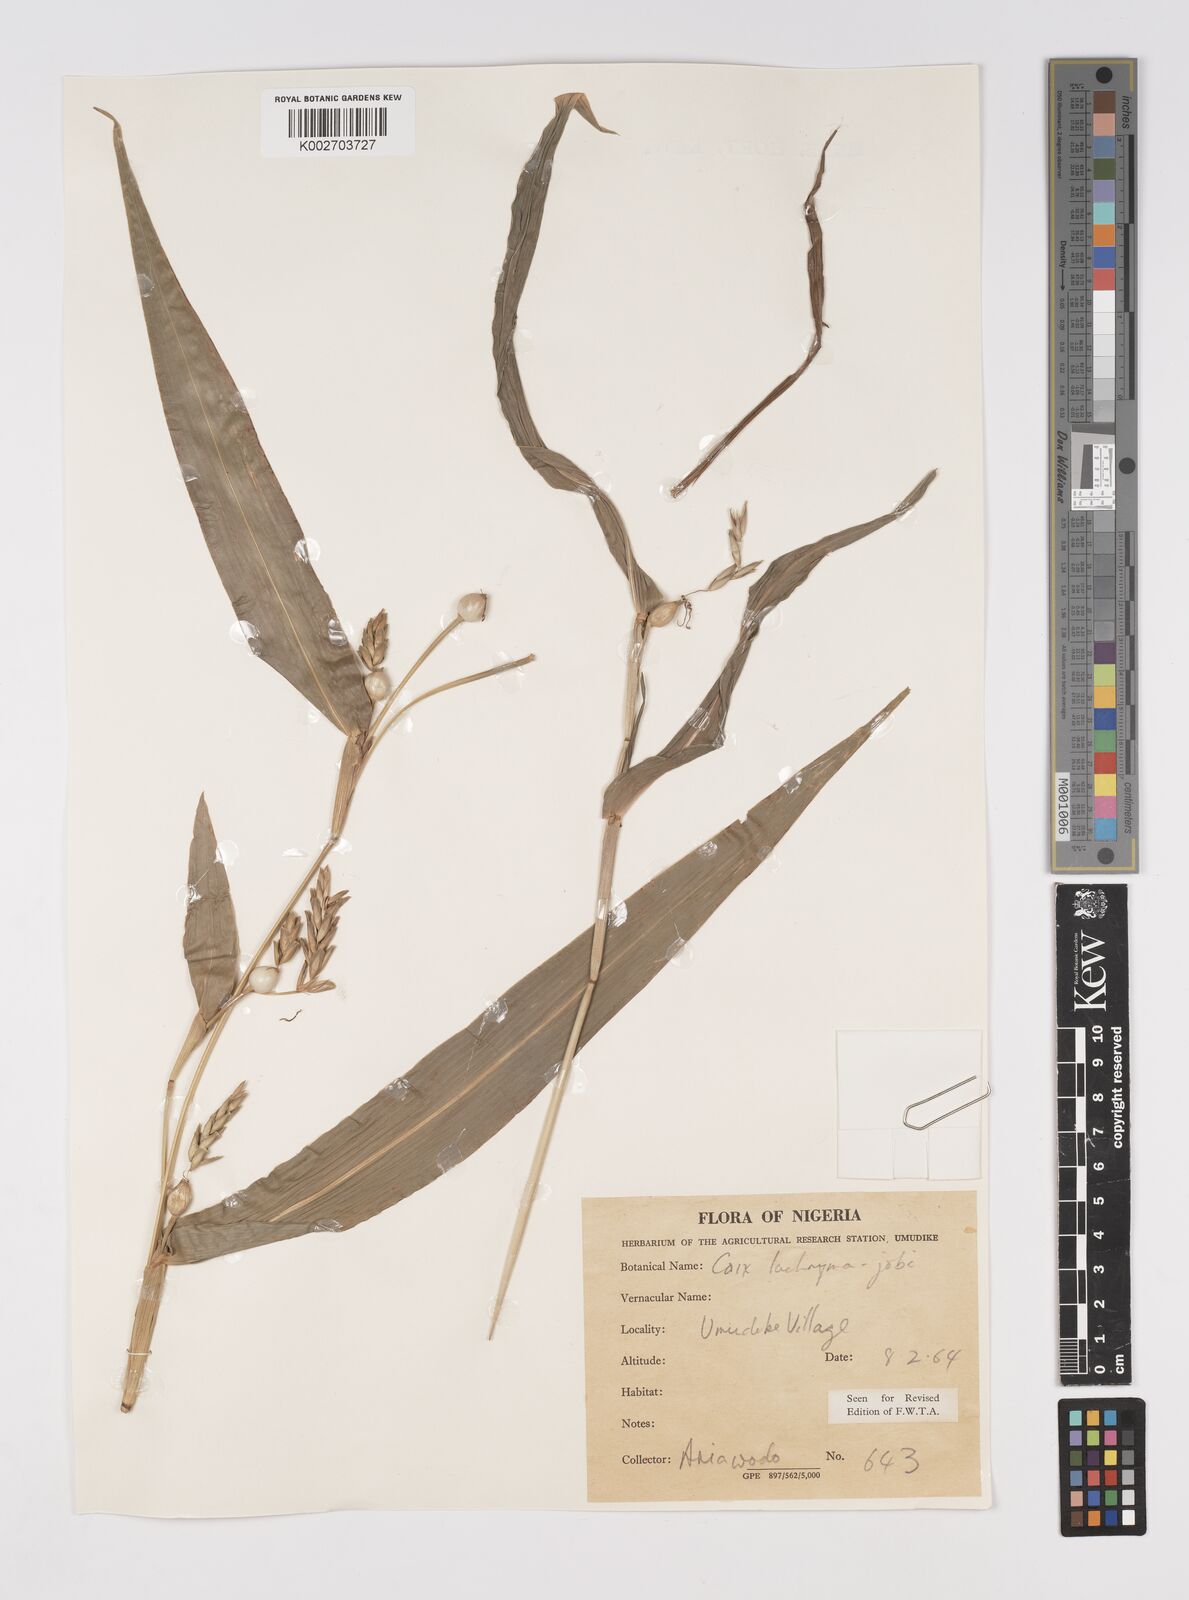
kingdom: Plantae
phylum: Tracheophyta
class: Liliopsida
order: Poales
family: Poaceae
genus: Coix
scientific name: Coix lacryma-jobi
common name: Job's tears
